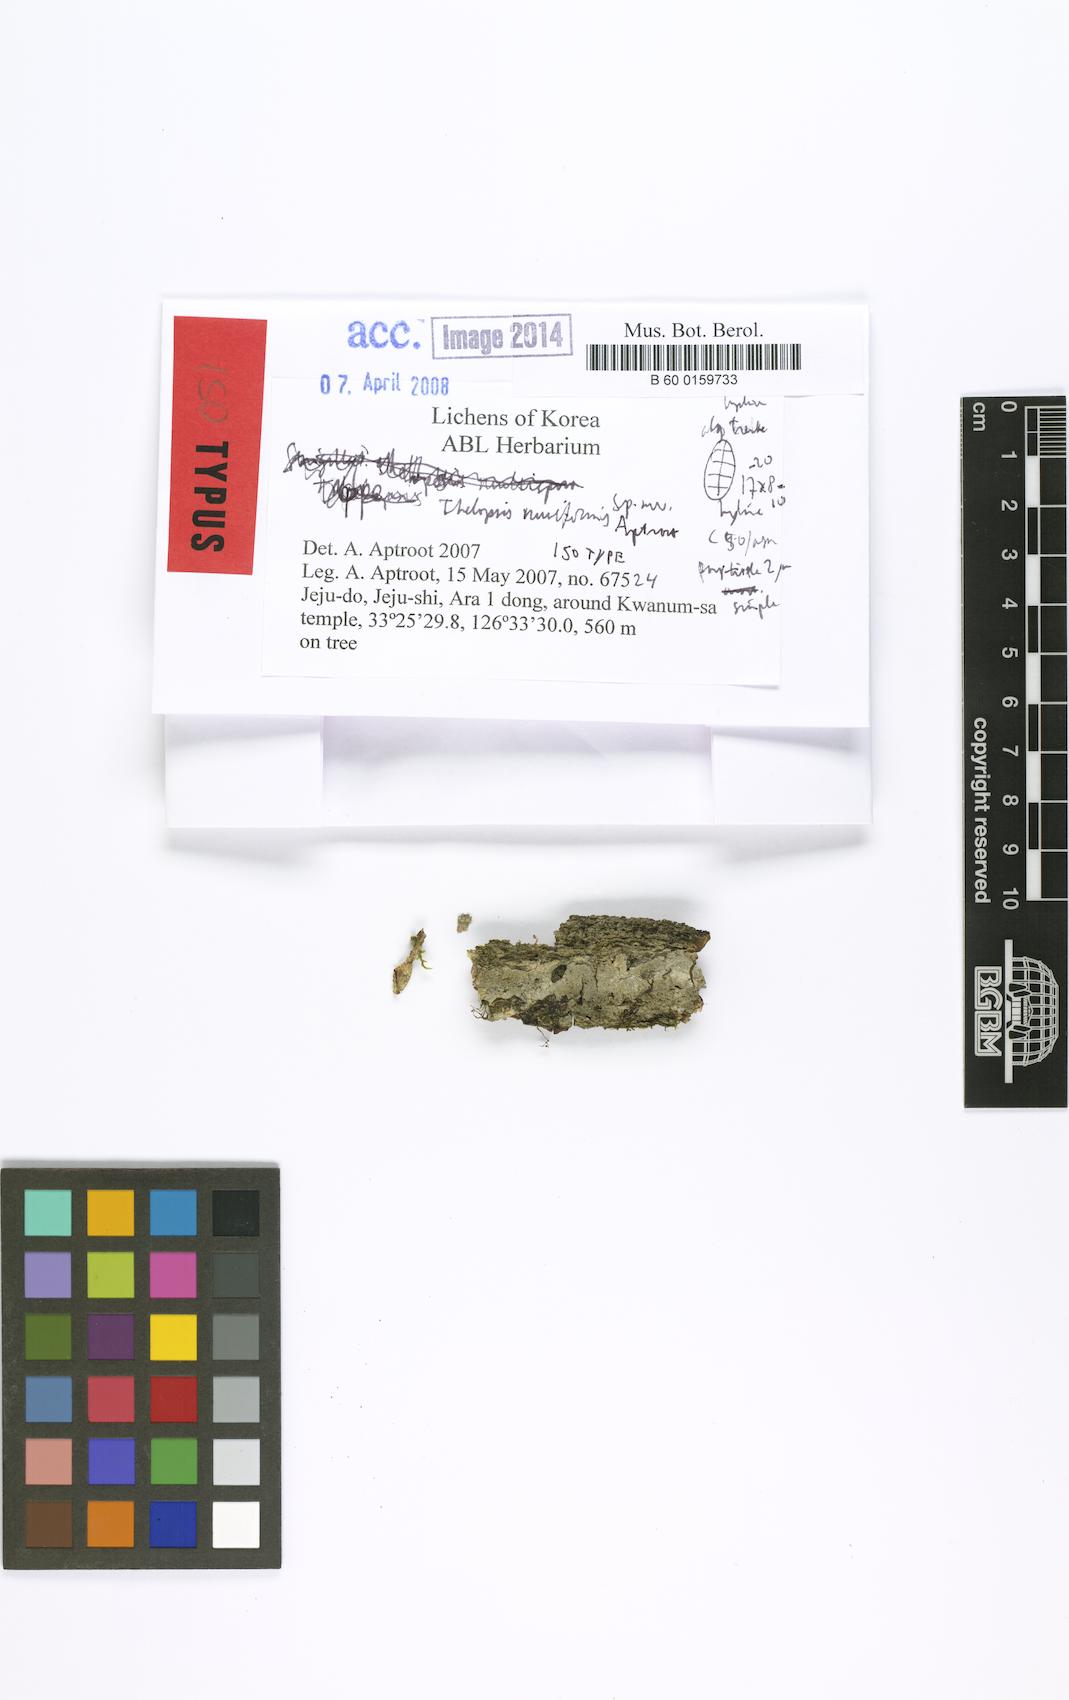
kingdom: Fungi
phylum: Ascomycota
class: Lecanoromycetes
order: Ostropales
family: Stictidaceae
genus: Thelopsis
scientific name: Thelopsis muriformis
